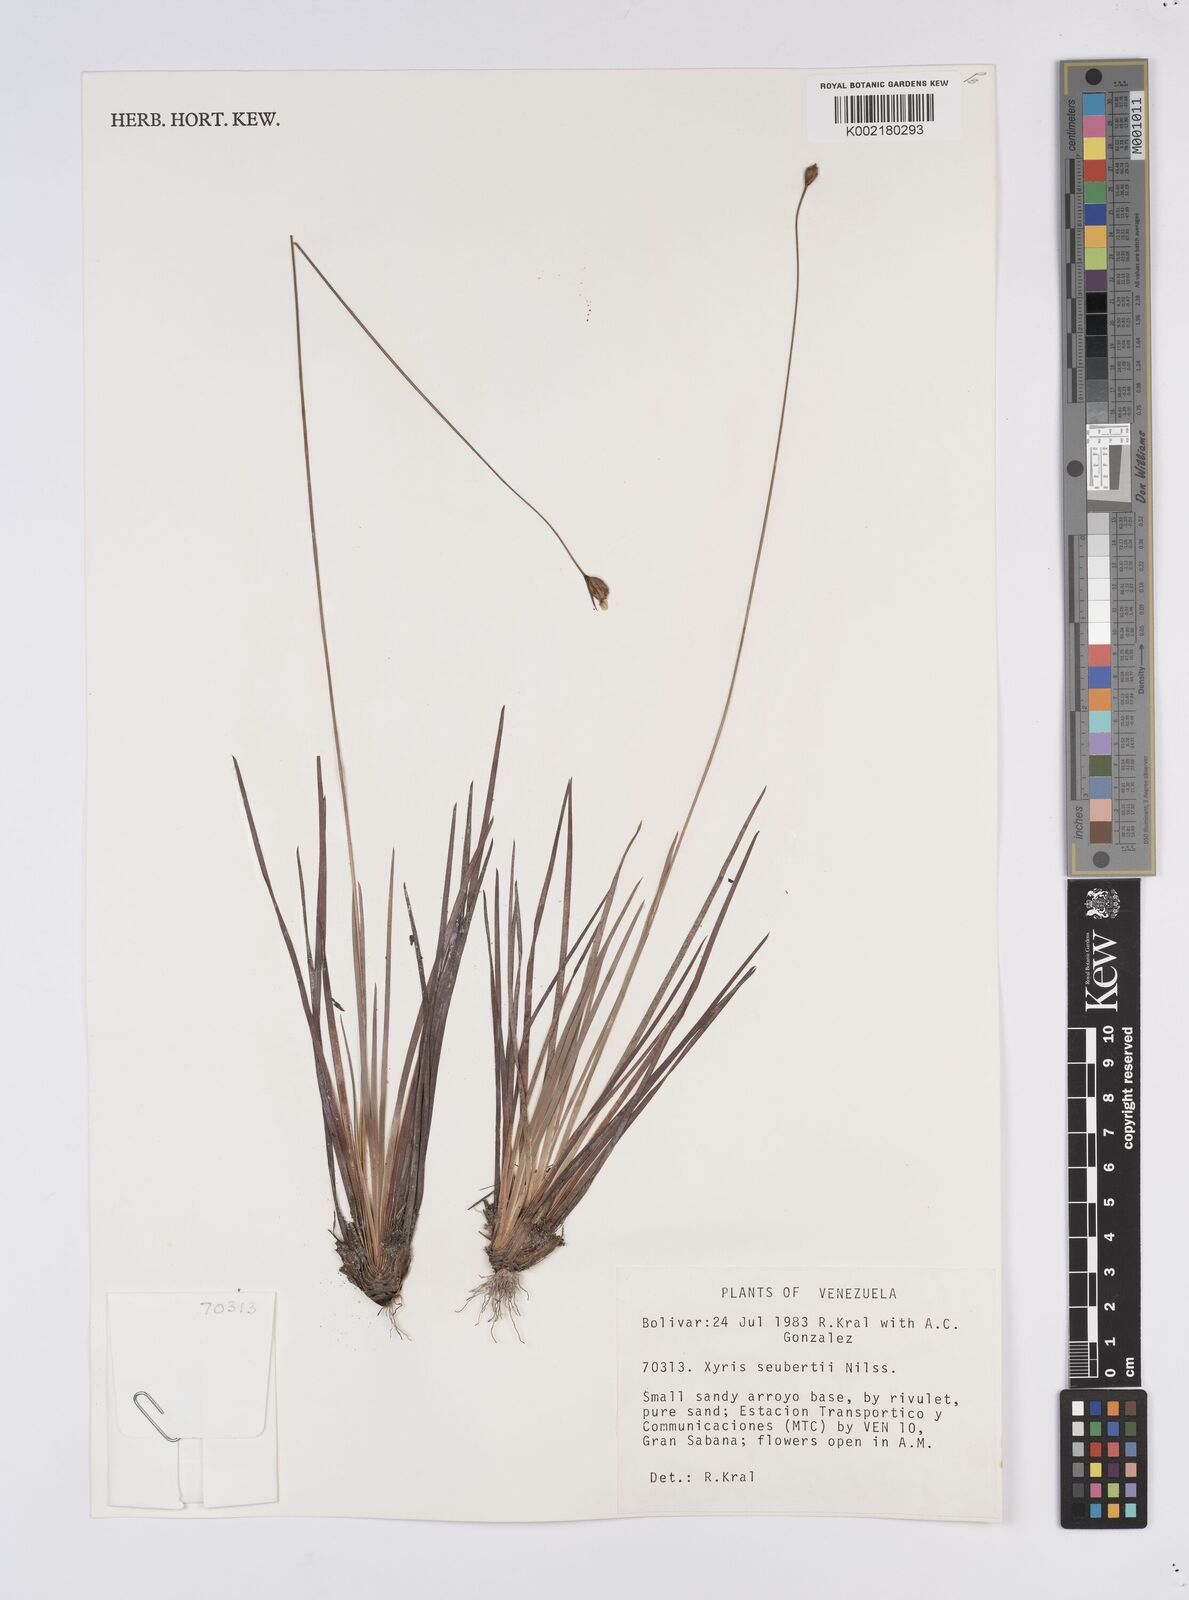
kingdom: Plantae
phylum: Tracheophyta
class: Liliopsida
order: Poales
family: Xyridaceae
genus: Xyris
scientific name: Xyris seubertii
